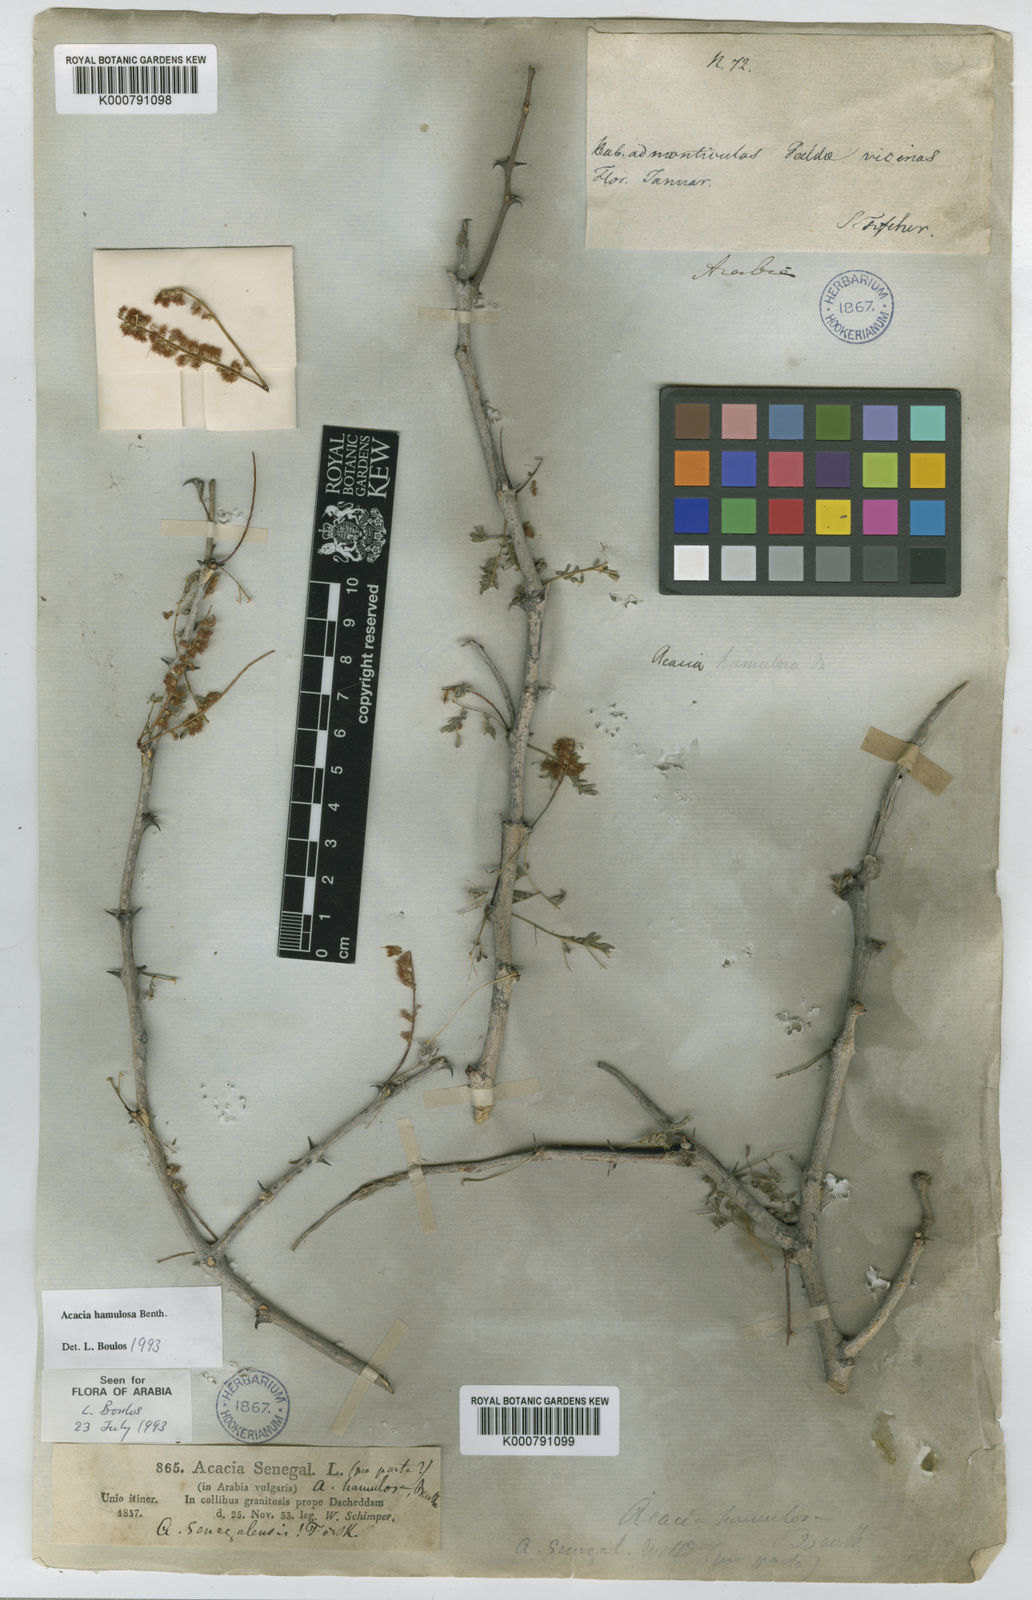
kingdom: Plantae
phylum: Tracheophyta
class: Magnoliopsida
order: Fabales
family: Fabaceae
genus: Senegalia
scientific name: Senegalia hamulosa
